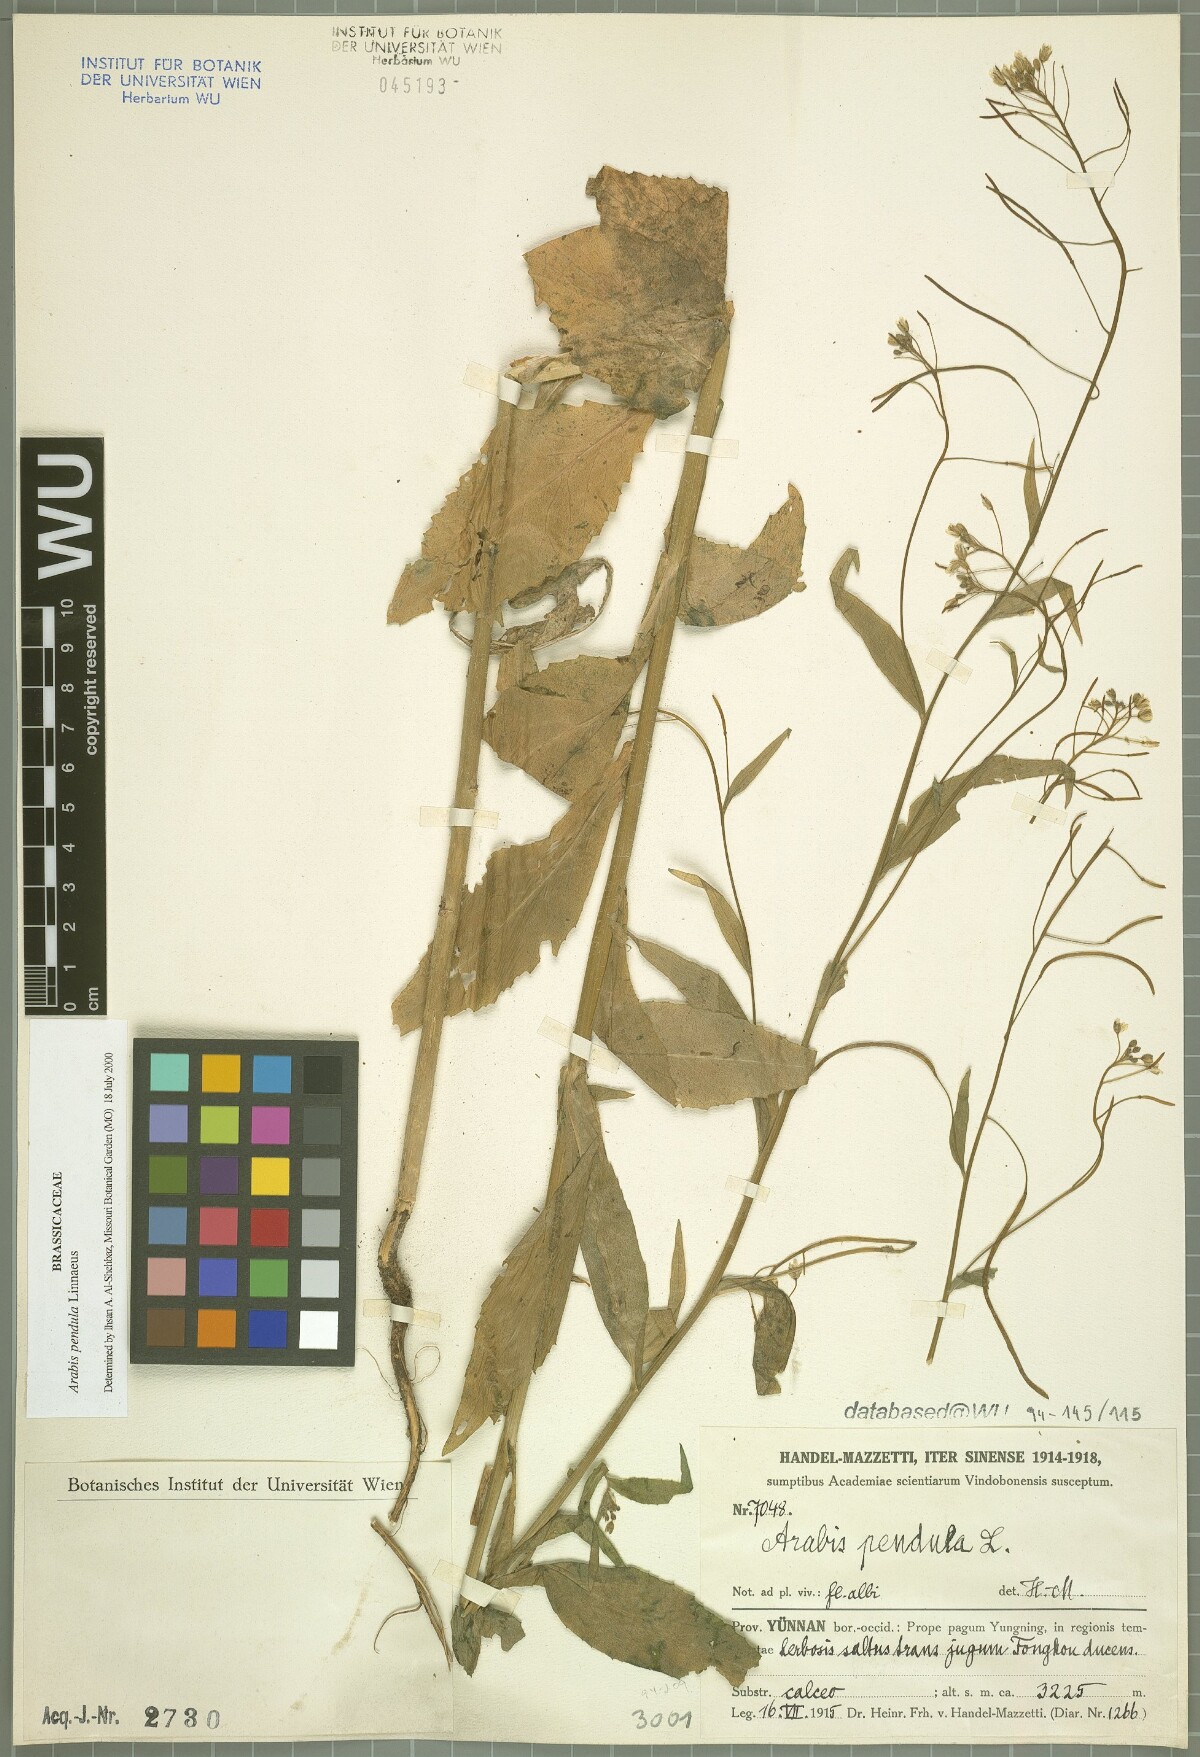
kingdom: Plantae
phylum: Tracheophyta
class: Magnoliopsida
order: Brassicales
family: Brassicaceae
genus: Catolobus
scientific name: Catolobus pendulus
